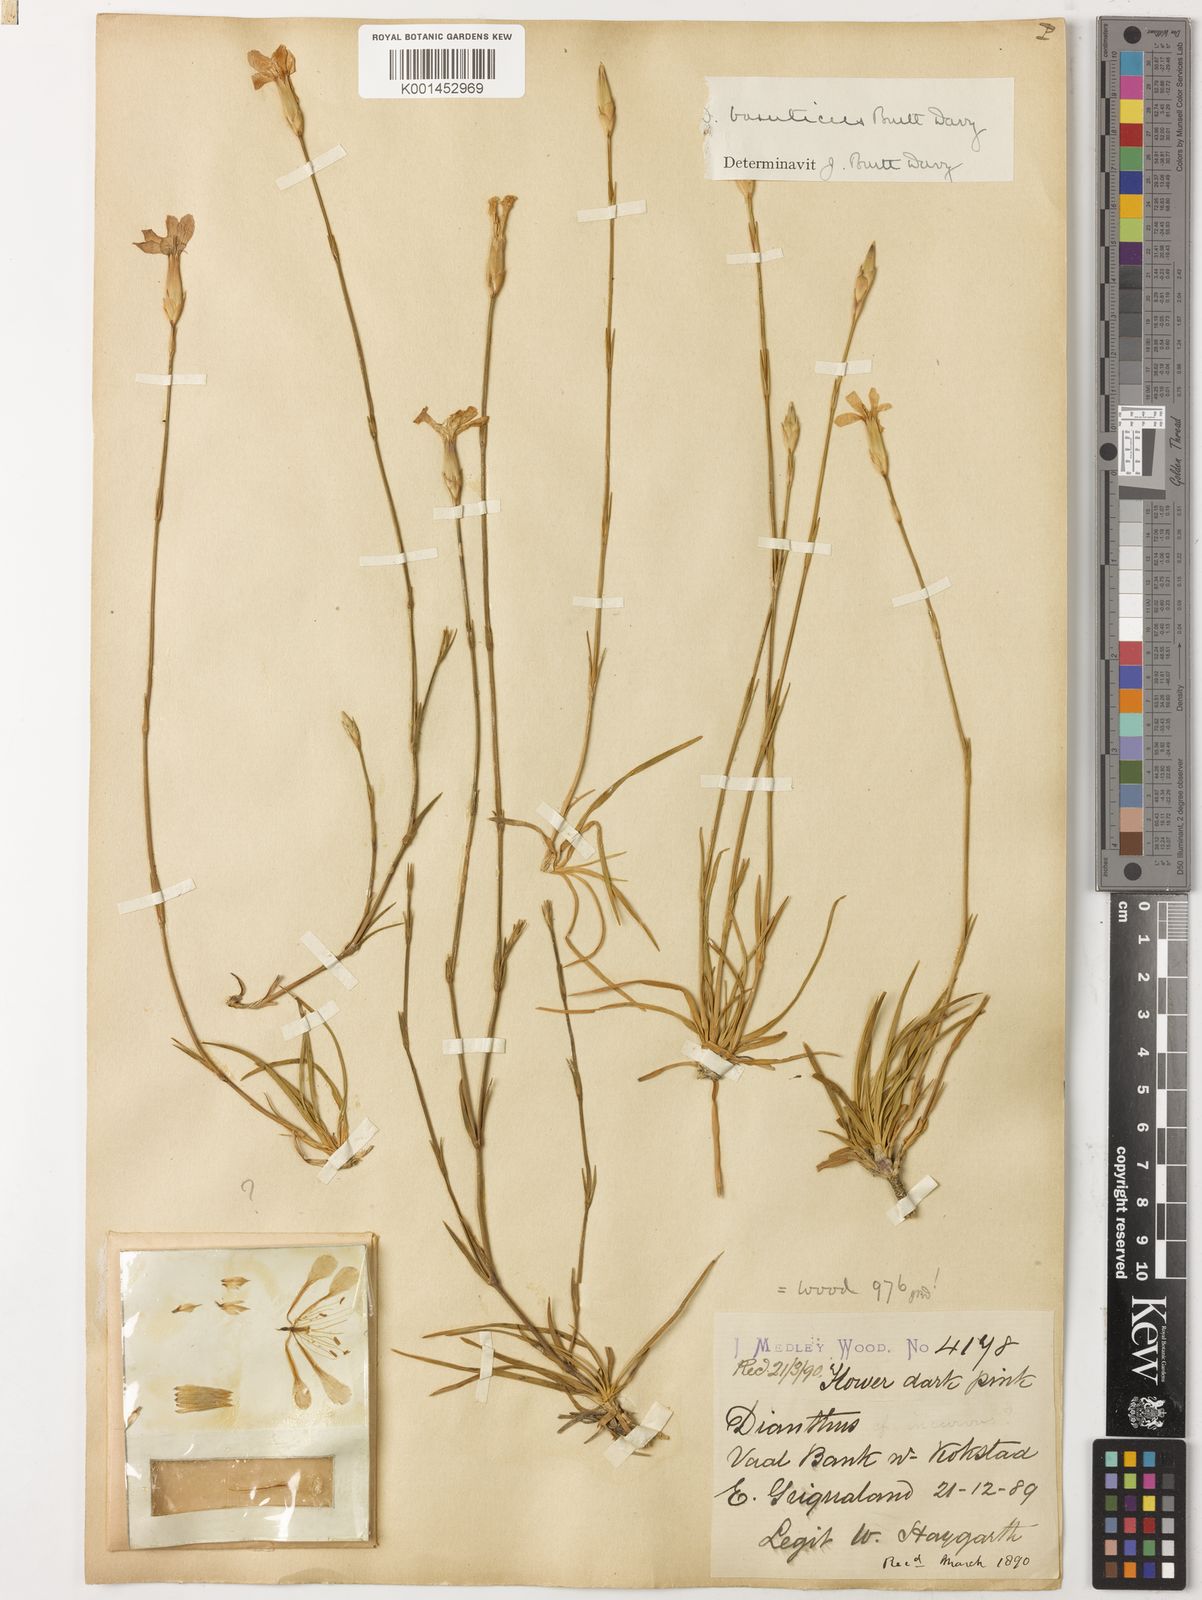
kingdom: Plantae
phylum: Tracheophyta
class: Magnoliopsida
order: Caryophyllales
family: Caryophyllaceae
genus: Dianthus
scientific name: Dianthus basuticus
